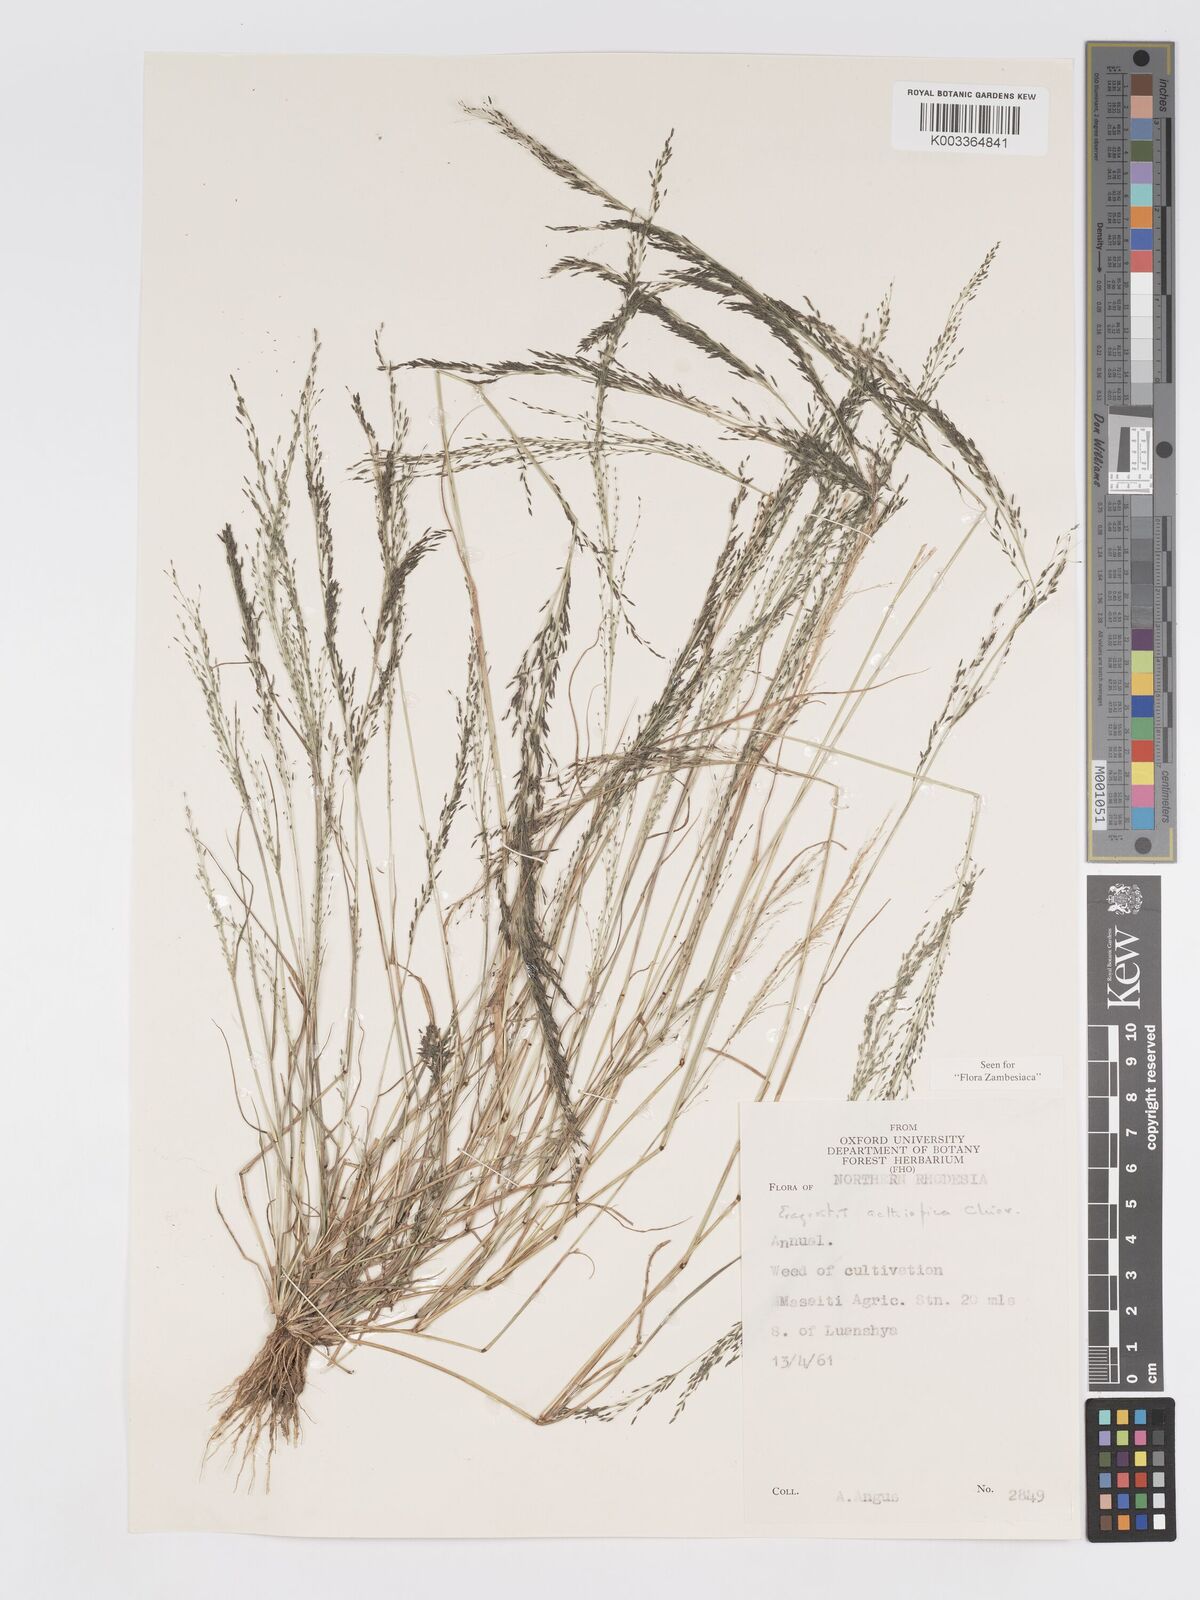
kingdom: Plantae
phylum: Tracheophyta
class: Liliopsida
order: Poales
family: Poaceae
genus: Eragrostis
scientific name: Eragrostis aethiopica
